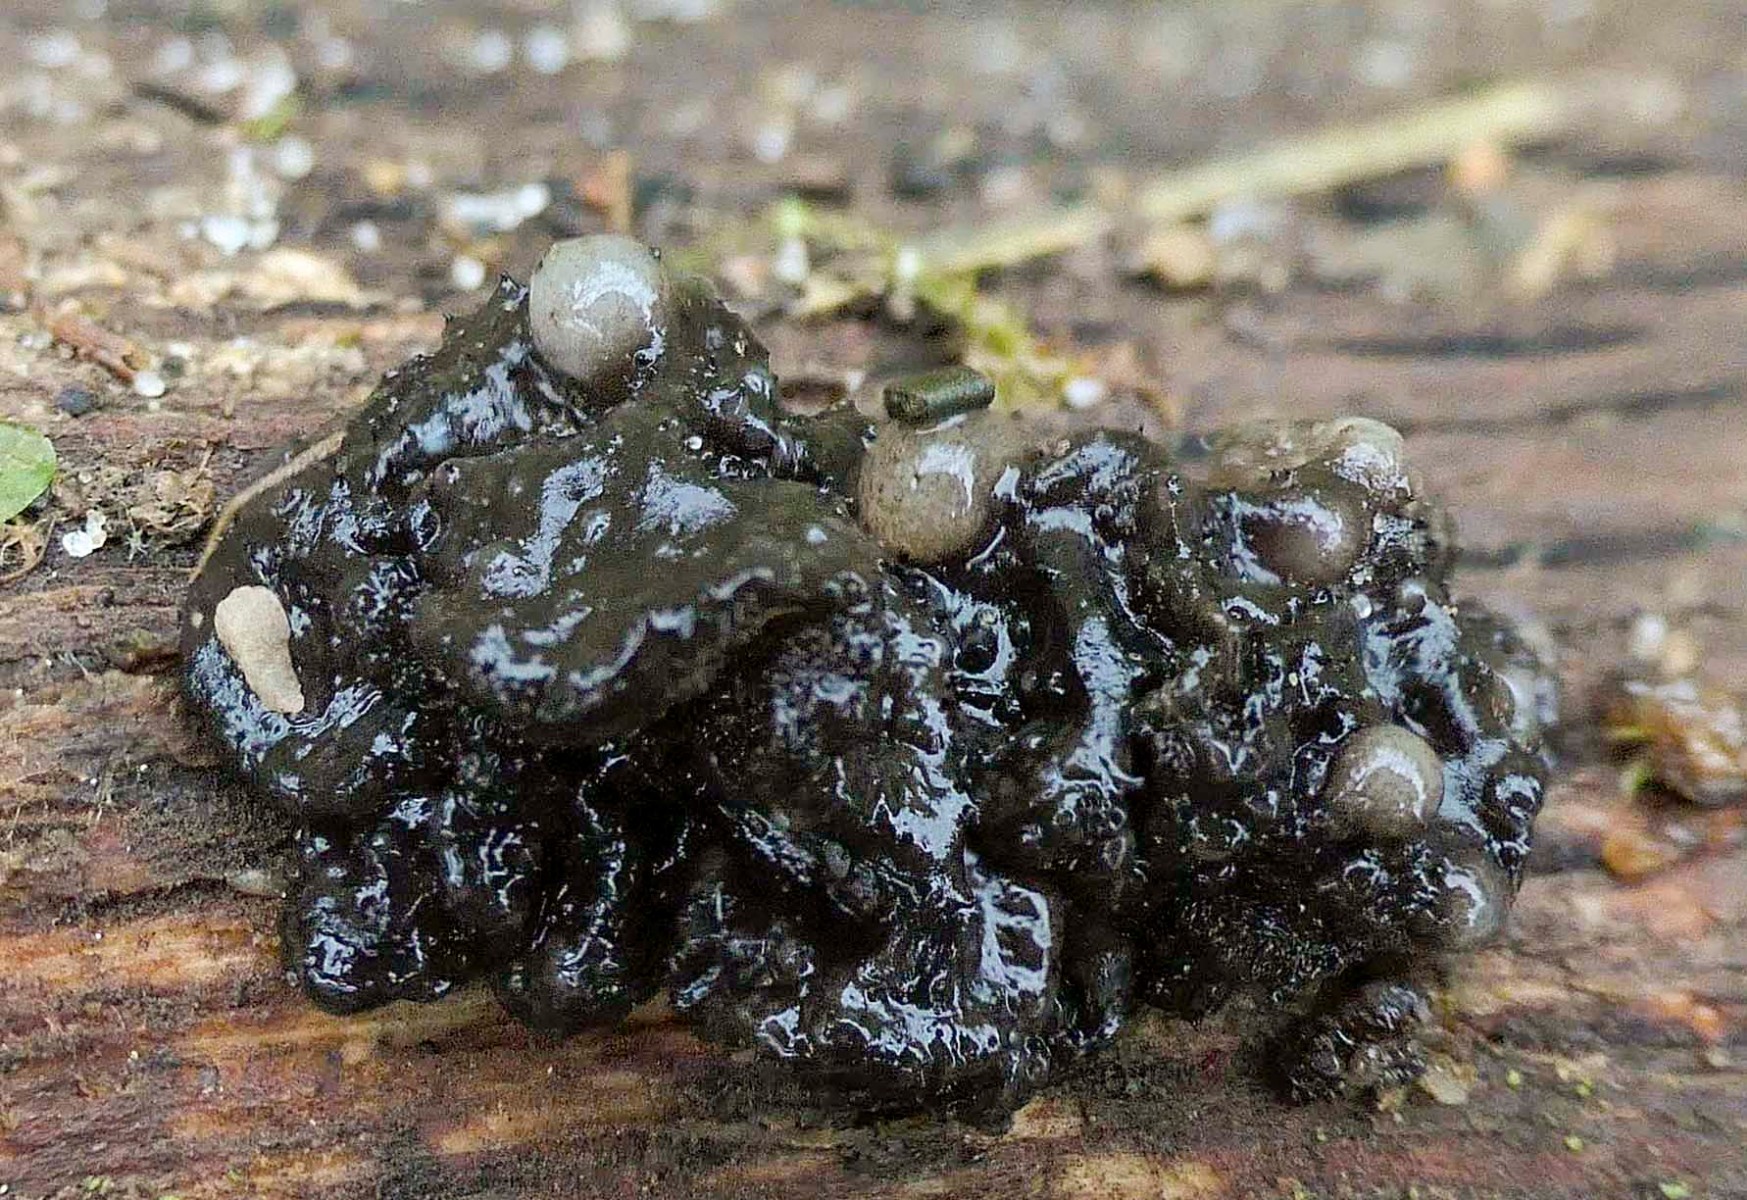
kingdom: Fungi
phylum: Basidiomycota
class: Tremellomycetes
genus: Heteromycophaga
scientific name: Heteromycophaga glandulosae
